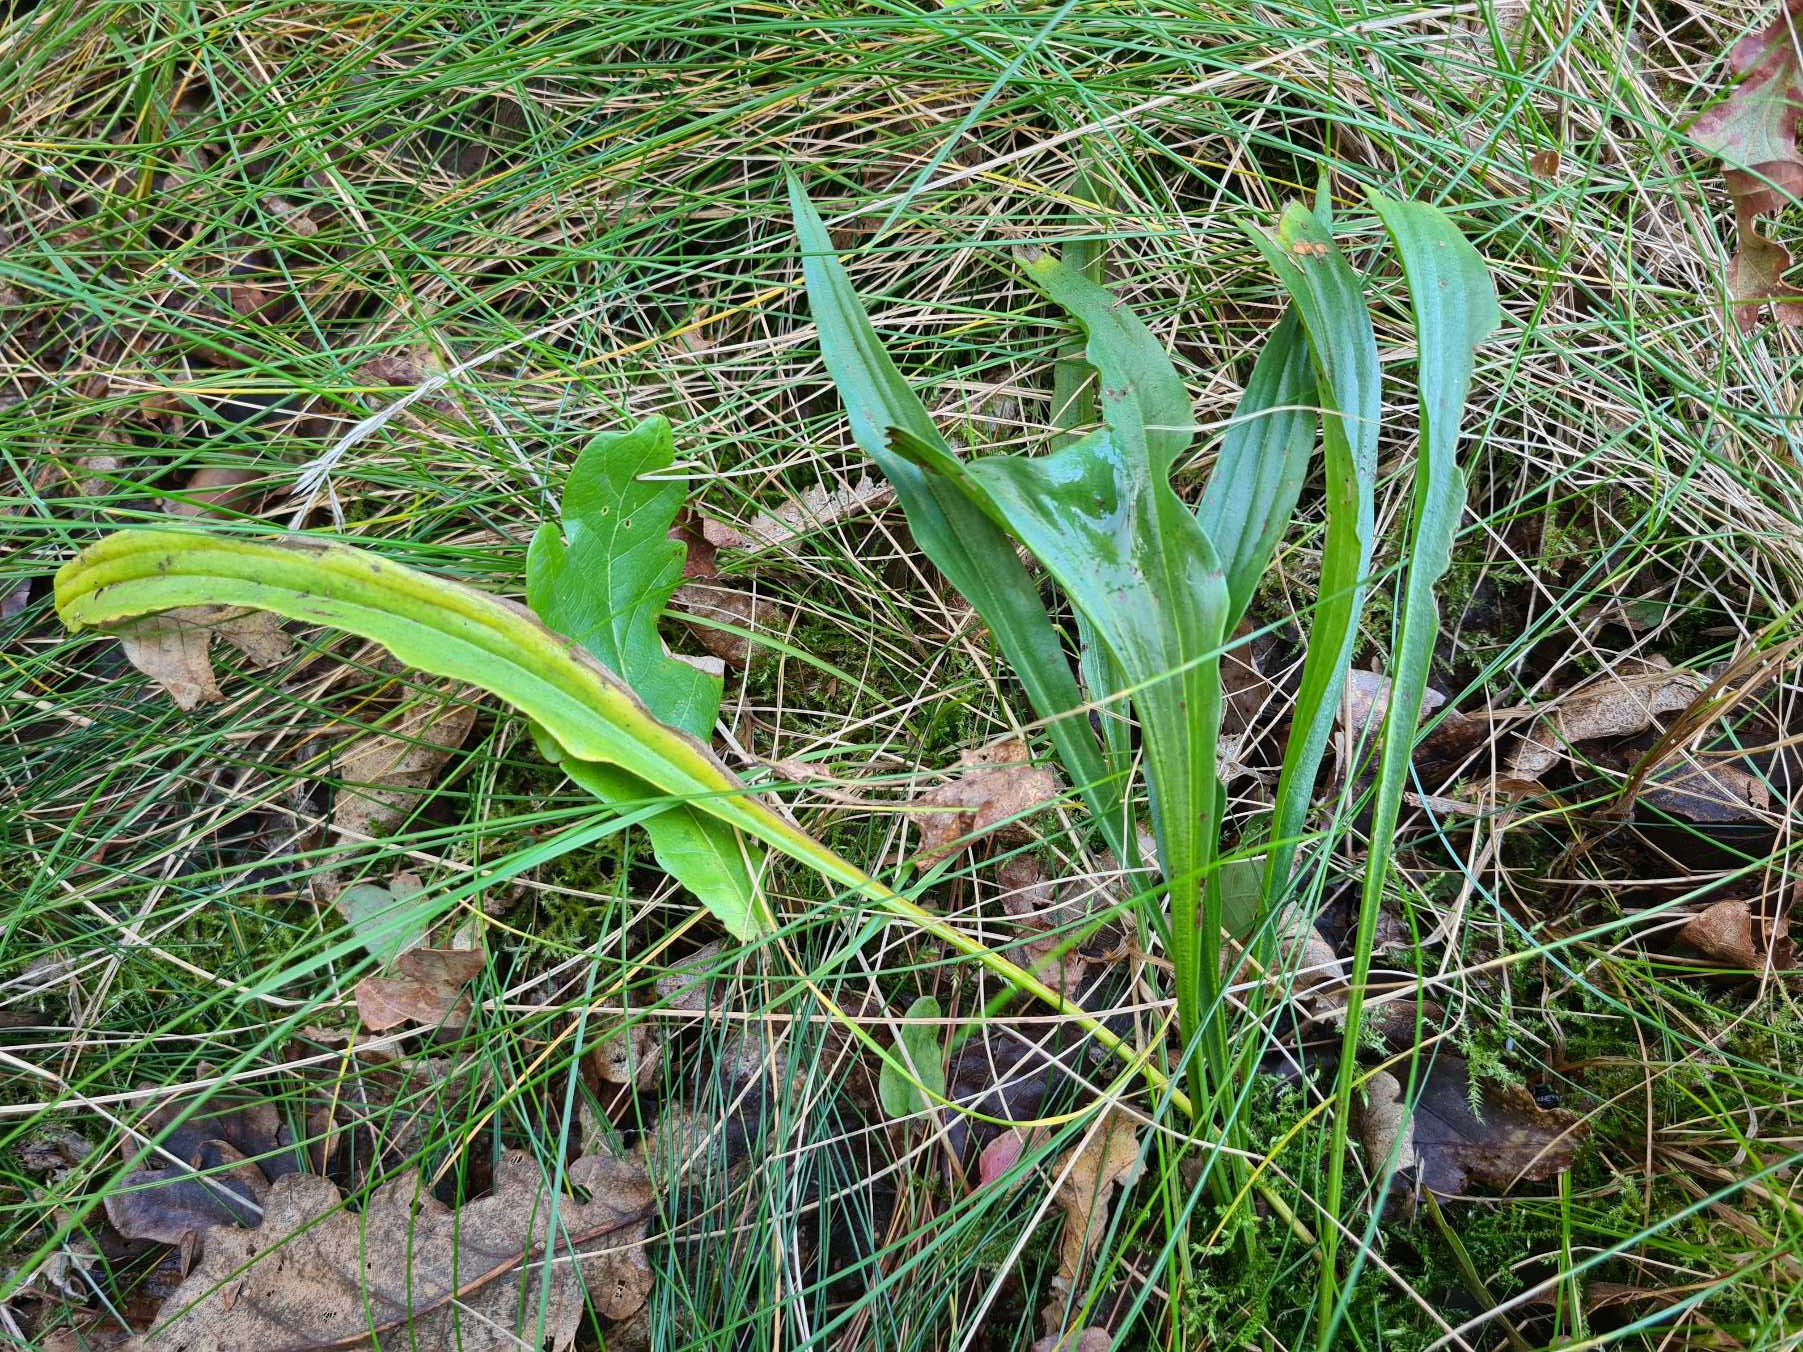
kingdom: Plantae
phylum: Tracheophyta
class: Magnoliopsida
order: Asterales
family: Asteraceae
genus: Scorzonera
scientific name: Scorzonera humilis
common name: Lav skorsoner
